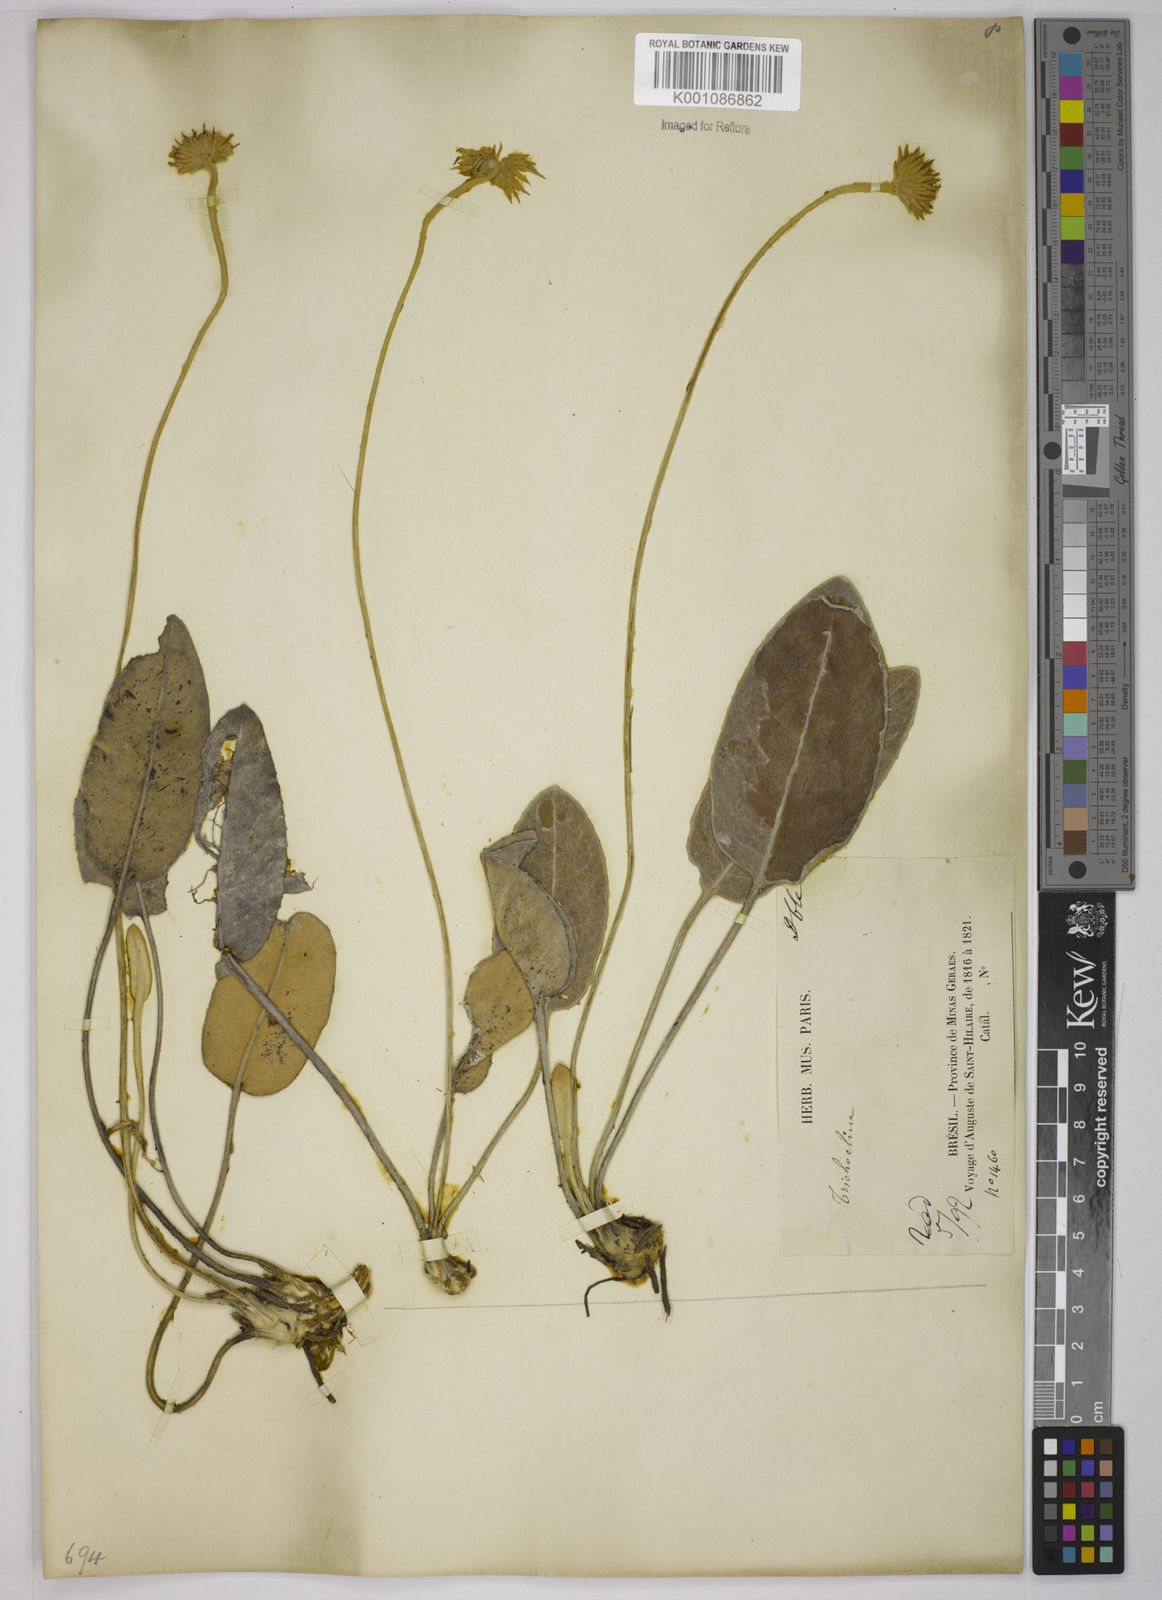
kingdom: Plantae
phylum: Tracheophyta
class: Magnoliopsida
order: Asterales
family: Asteraceae
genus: Chaptalia
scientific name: Chaptalia martii
